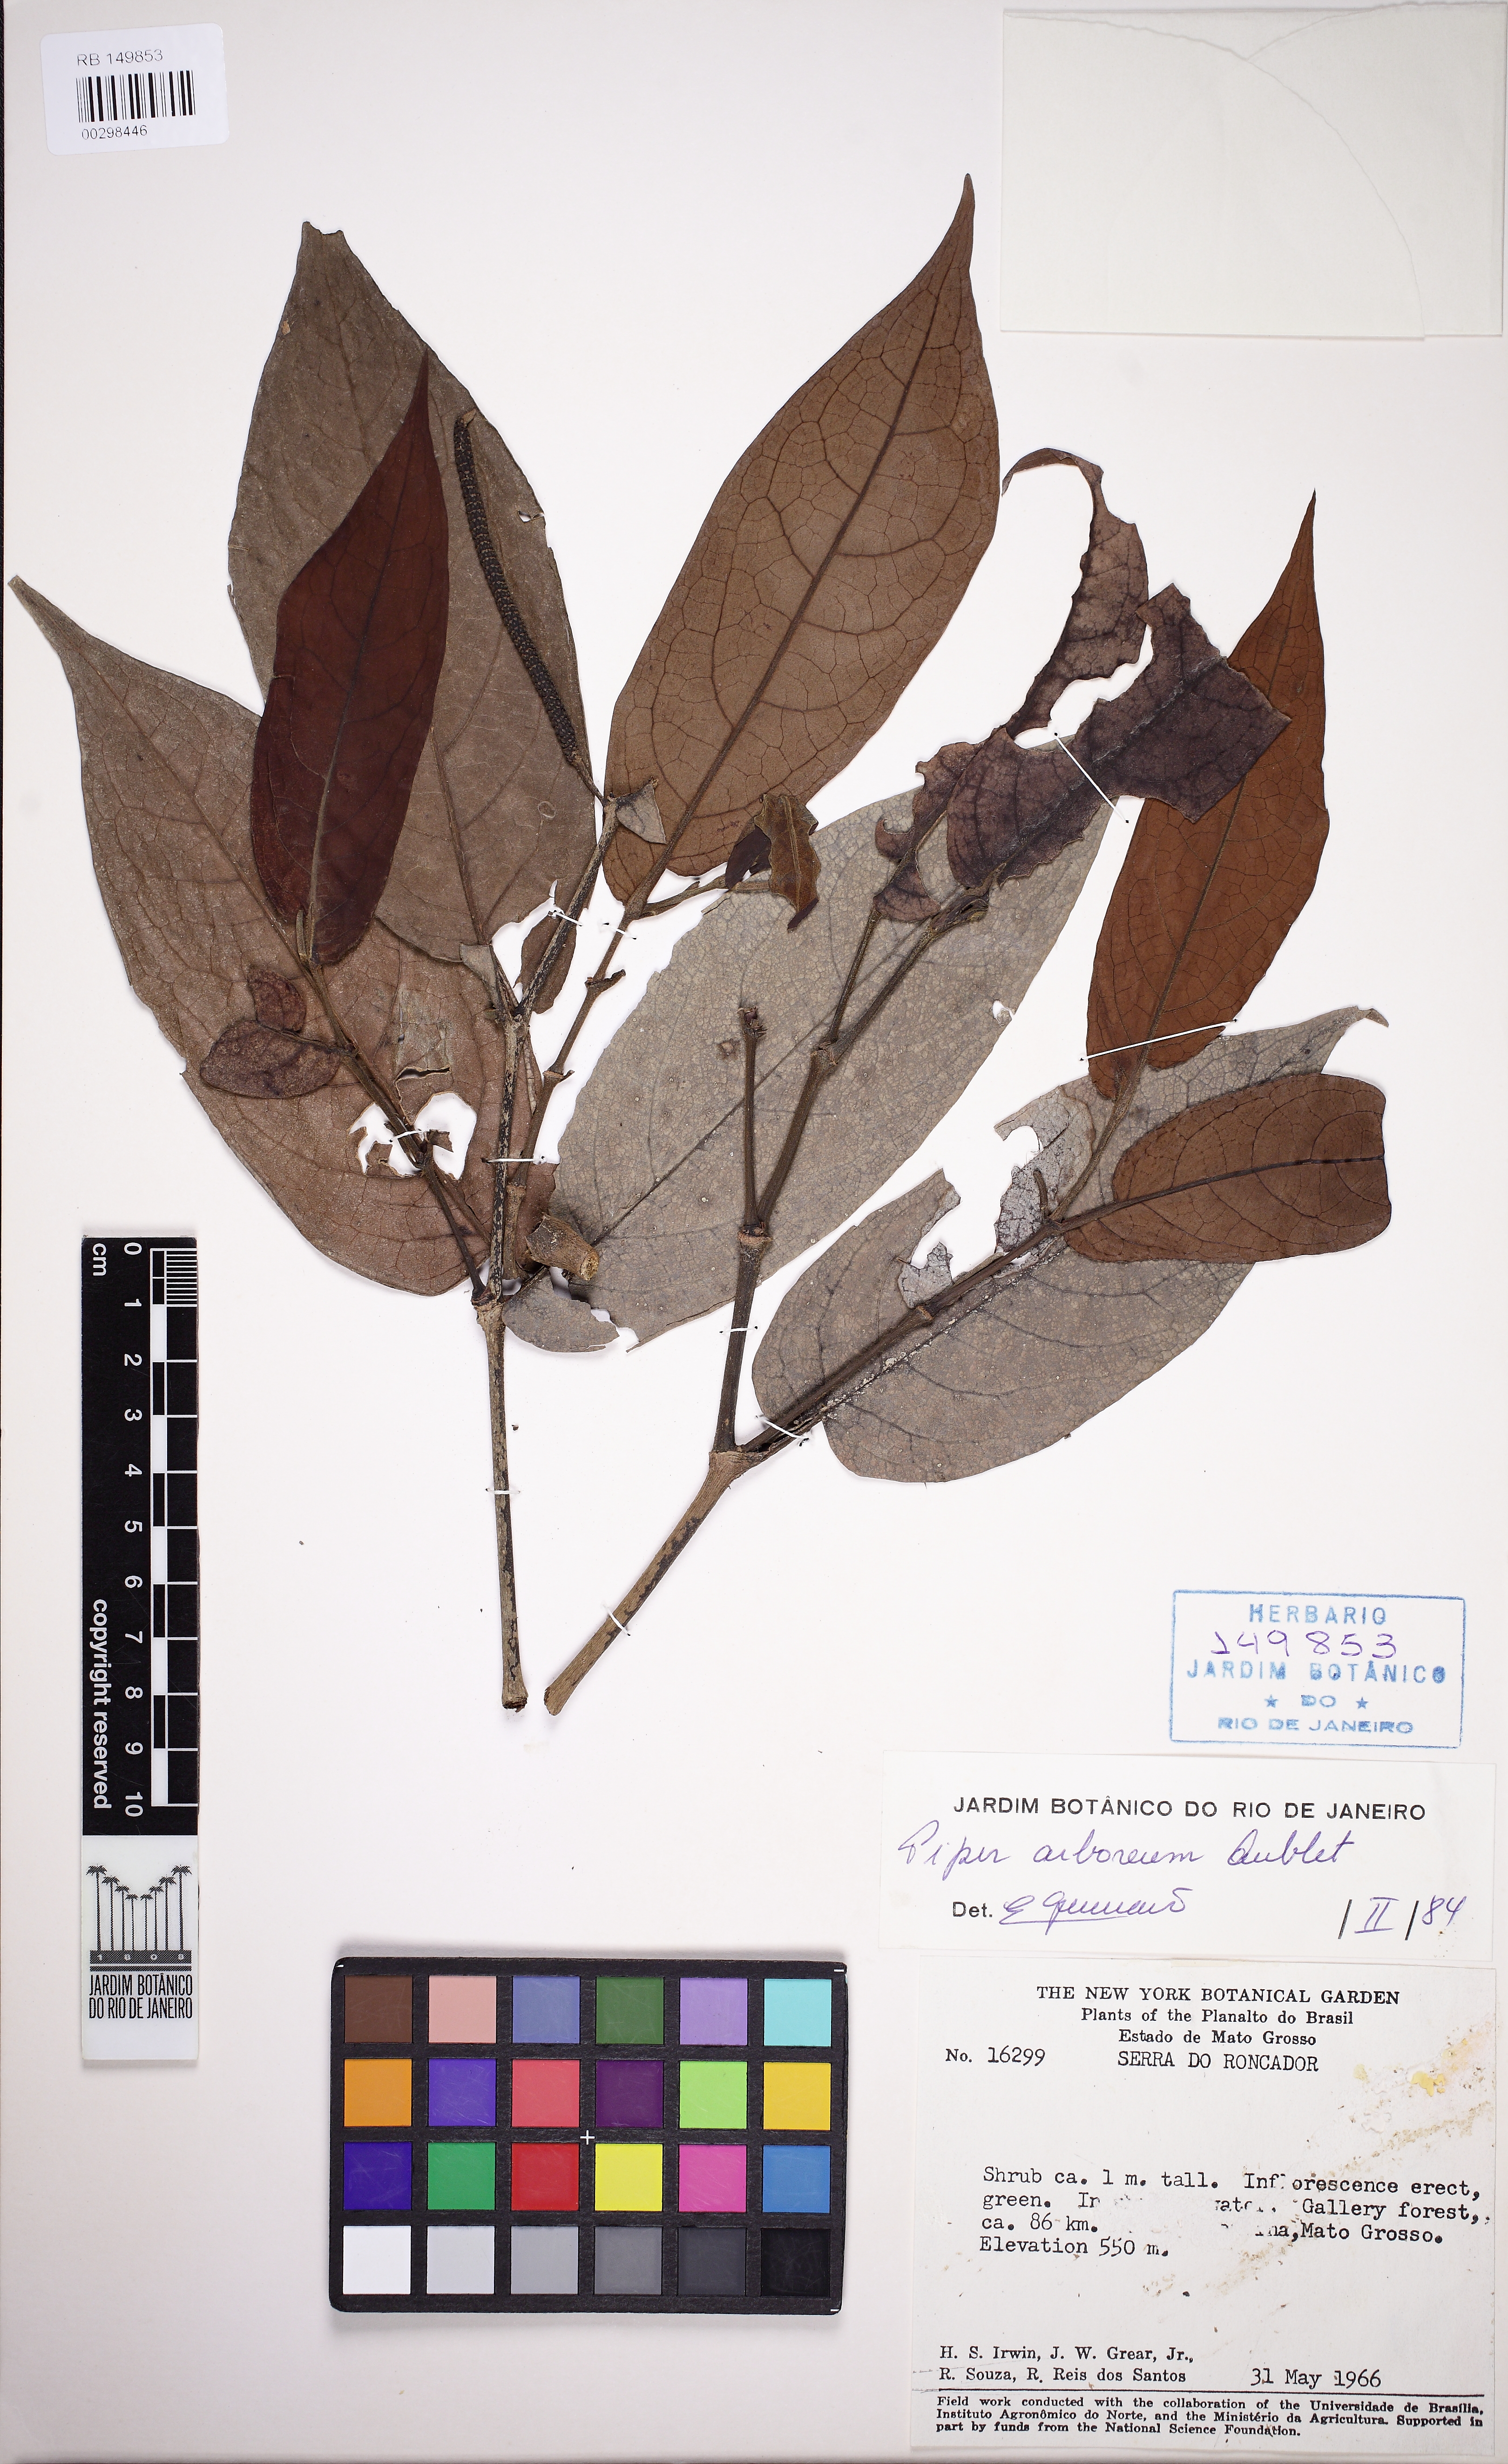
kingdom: Plantae
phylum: Tracheophyta
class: Magnoliopsida
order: Piperales
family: Piperaceae
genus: Piper
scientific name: Piper arboreum
